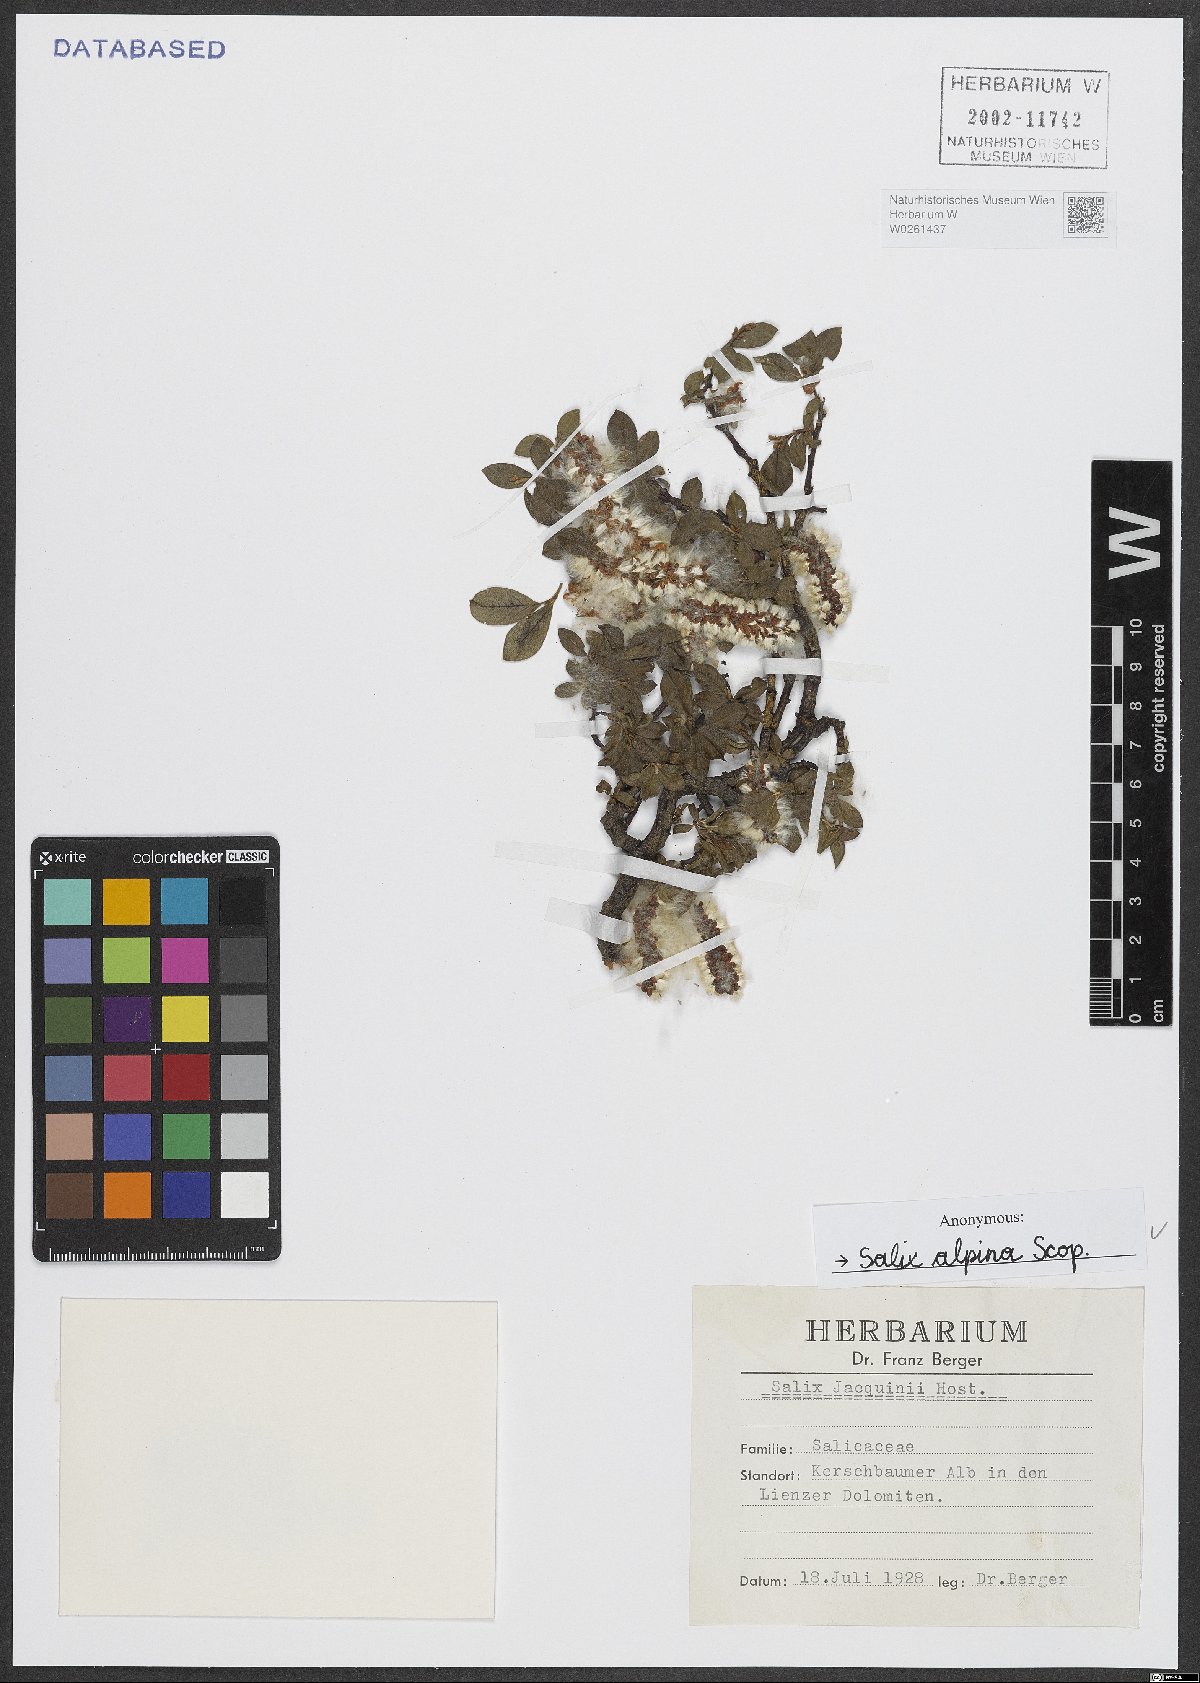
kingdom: Plantae
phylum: Tracheophyta
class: Magnoliopsida
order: Malpighiales
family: Salicaceae
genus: Salix
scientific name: Salix alpina
